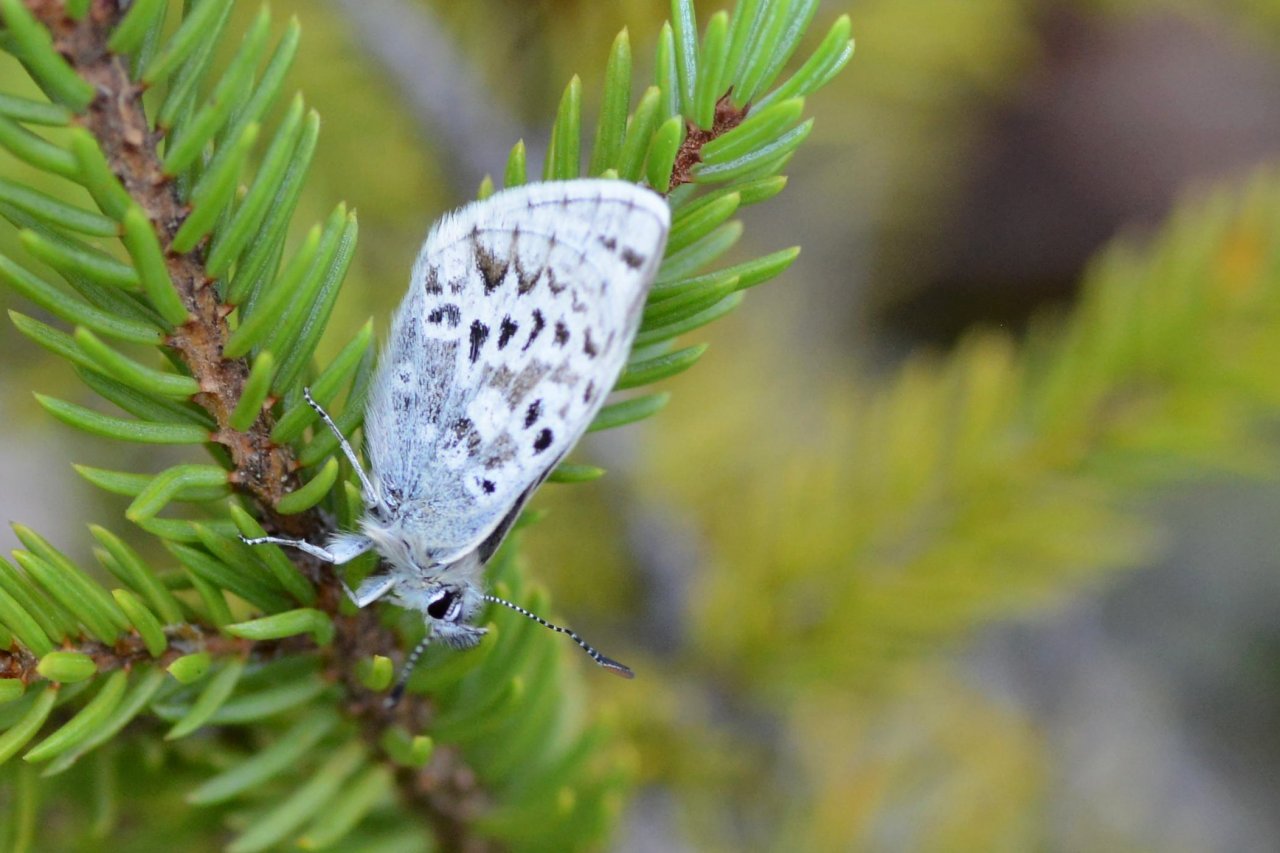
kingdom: Animalia
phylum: Arthropoda
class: Insecta
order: Lepidoptera
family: Lycaenidae
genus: Agriades
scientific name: Agriades glandon
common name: Arctic Blue
